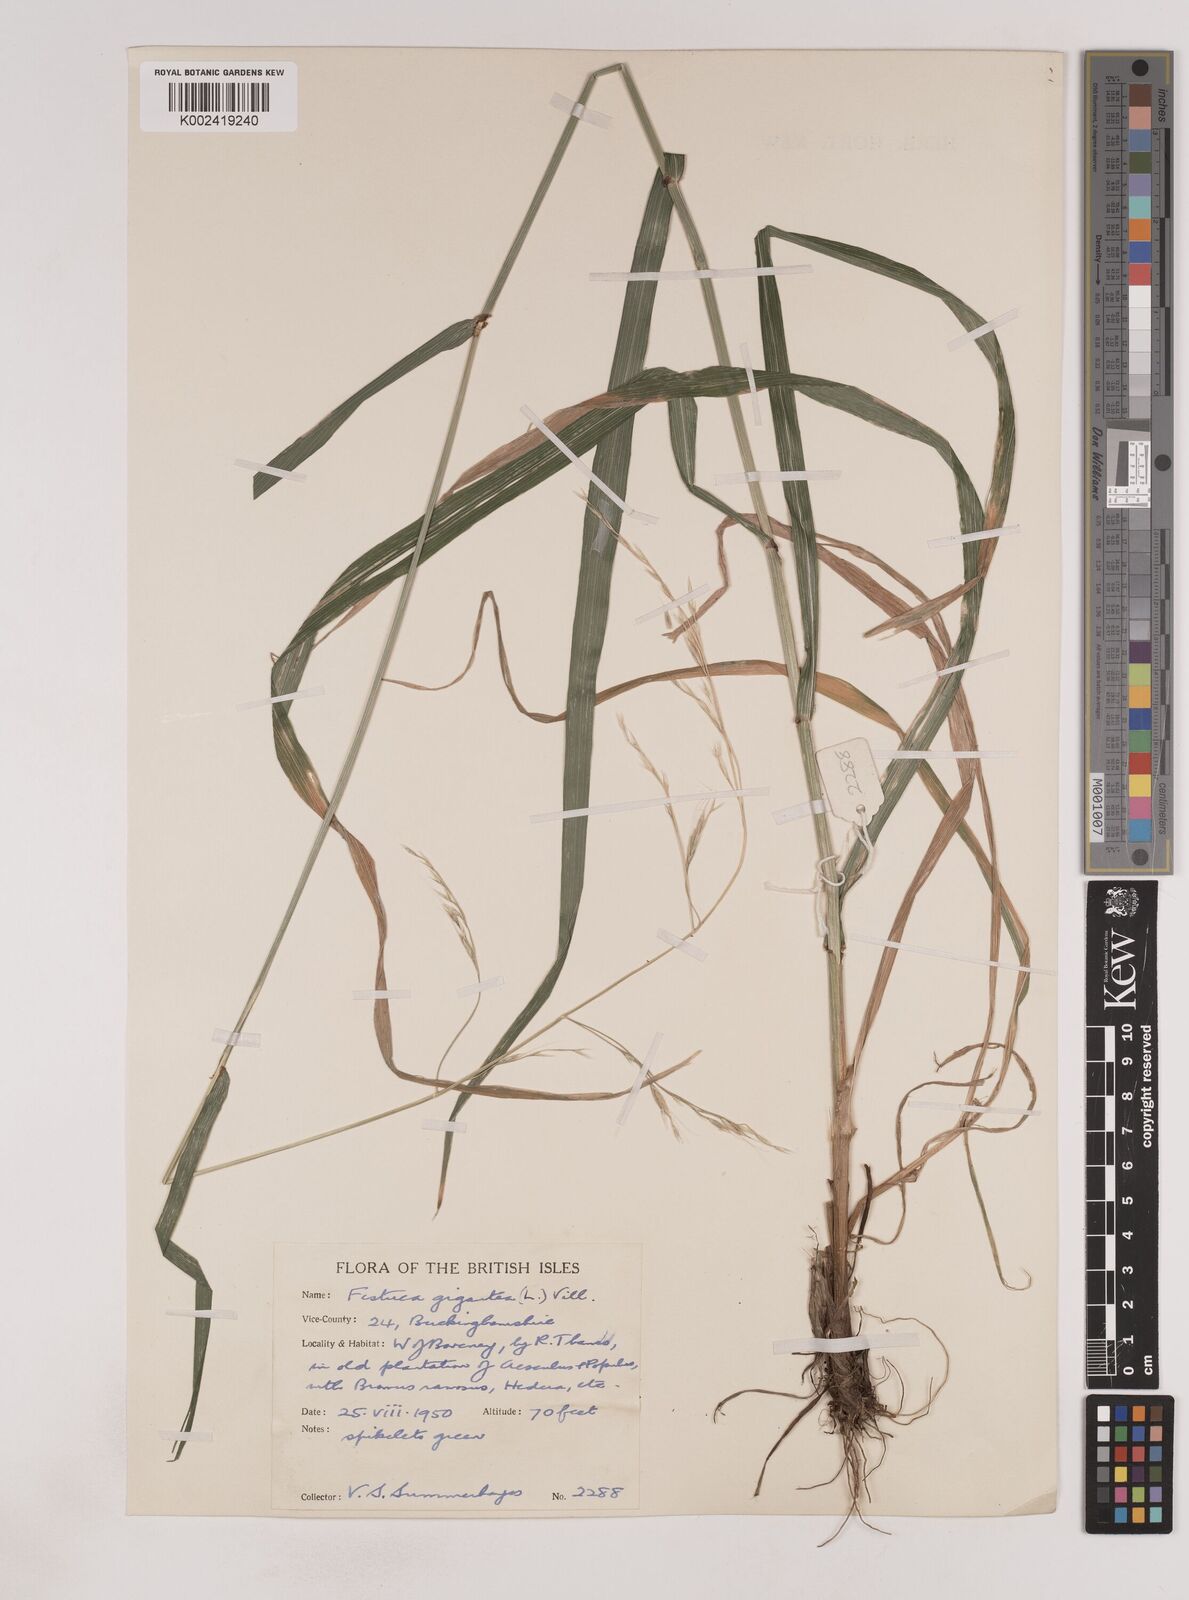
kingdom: Plantae
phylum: Tracheophyta
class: Liliopsida
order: Poales
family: Poaceae
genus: Lolium
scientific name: Lolium giganteum
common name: Giant fescue
